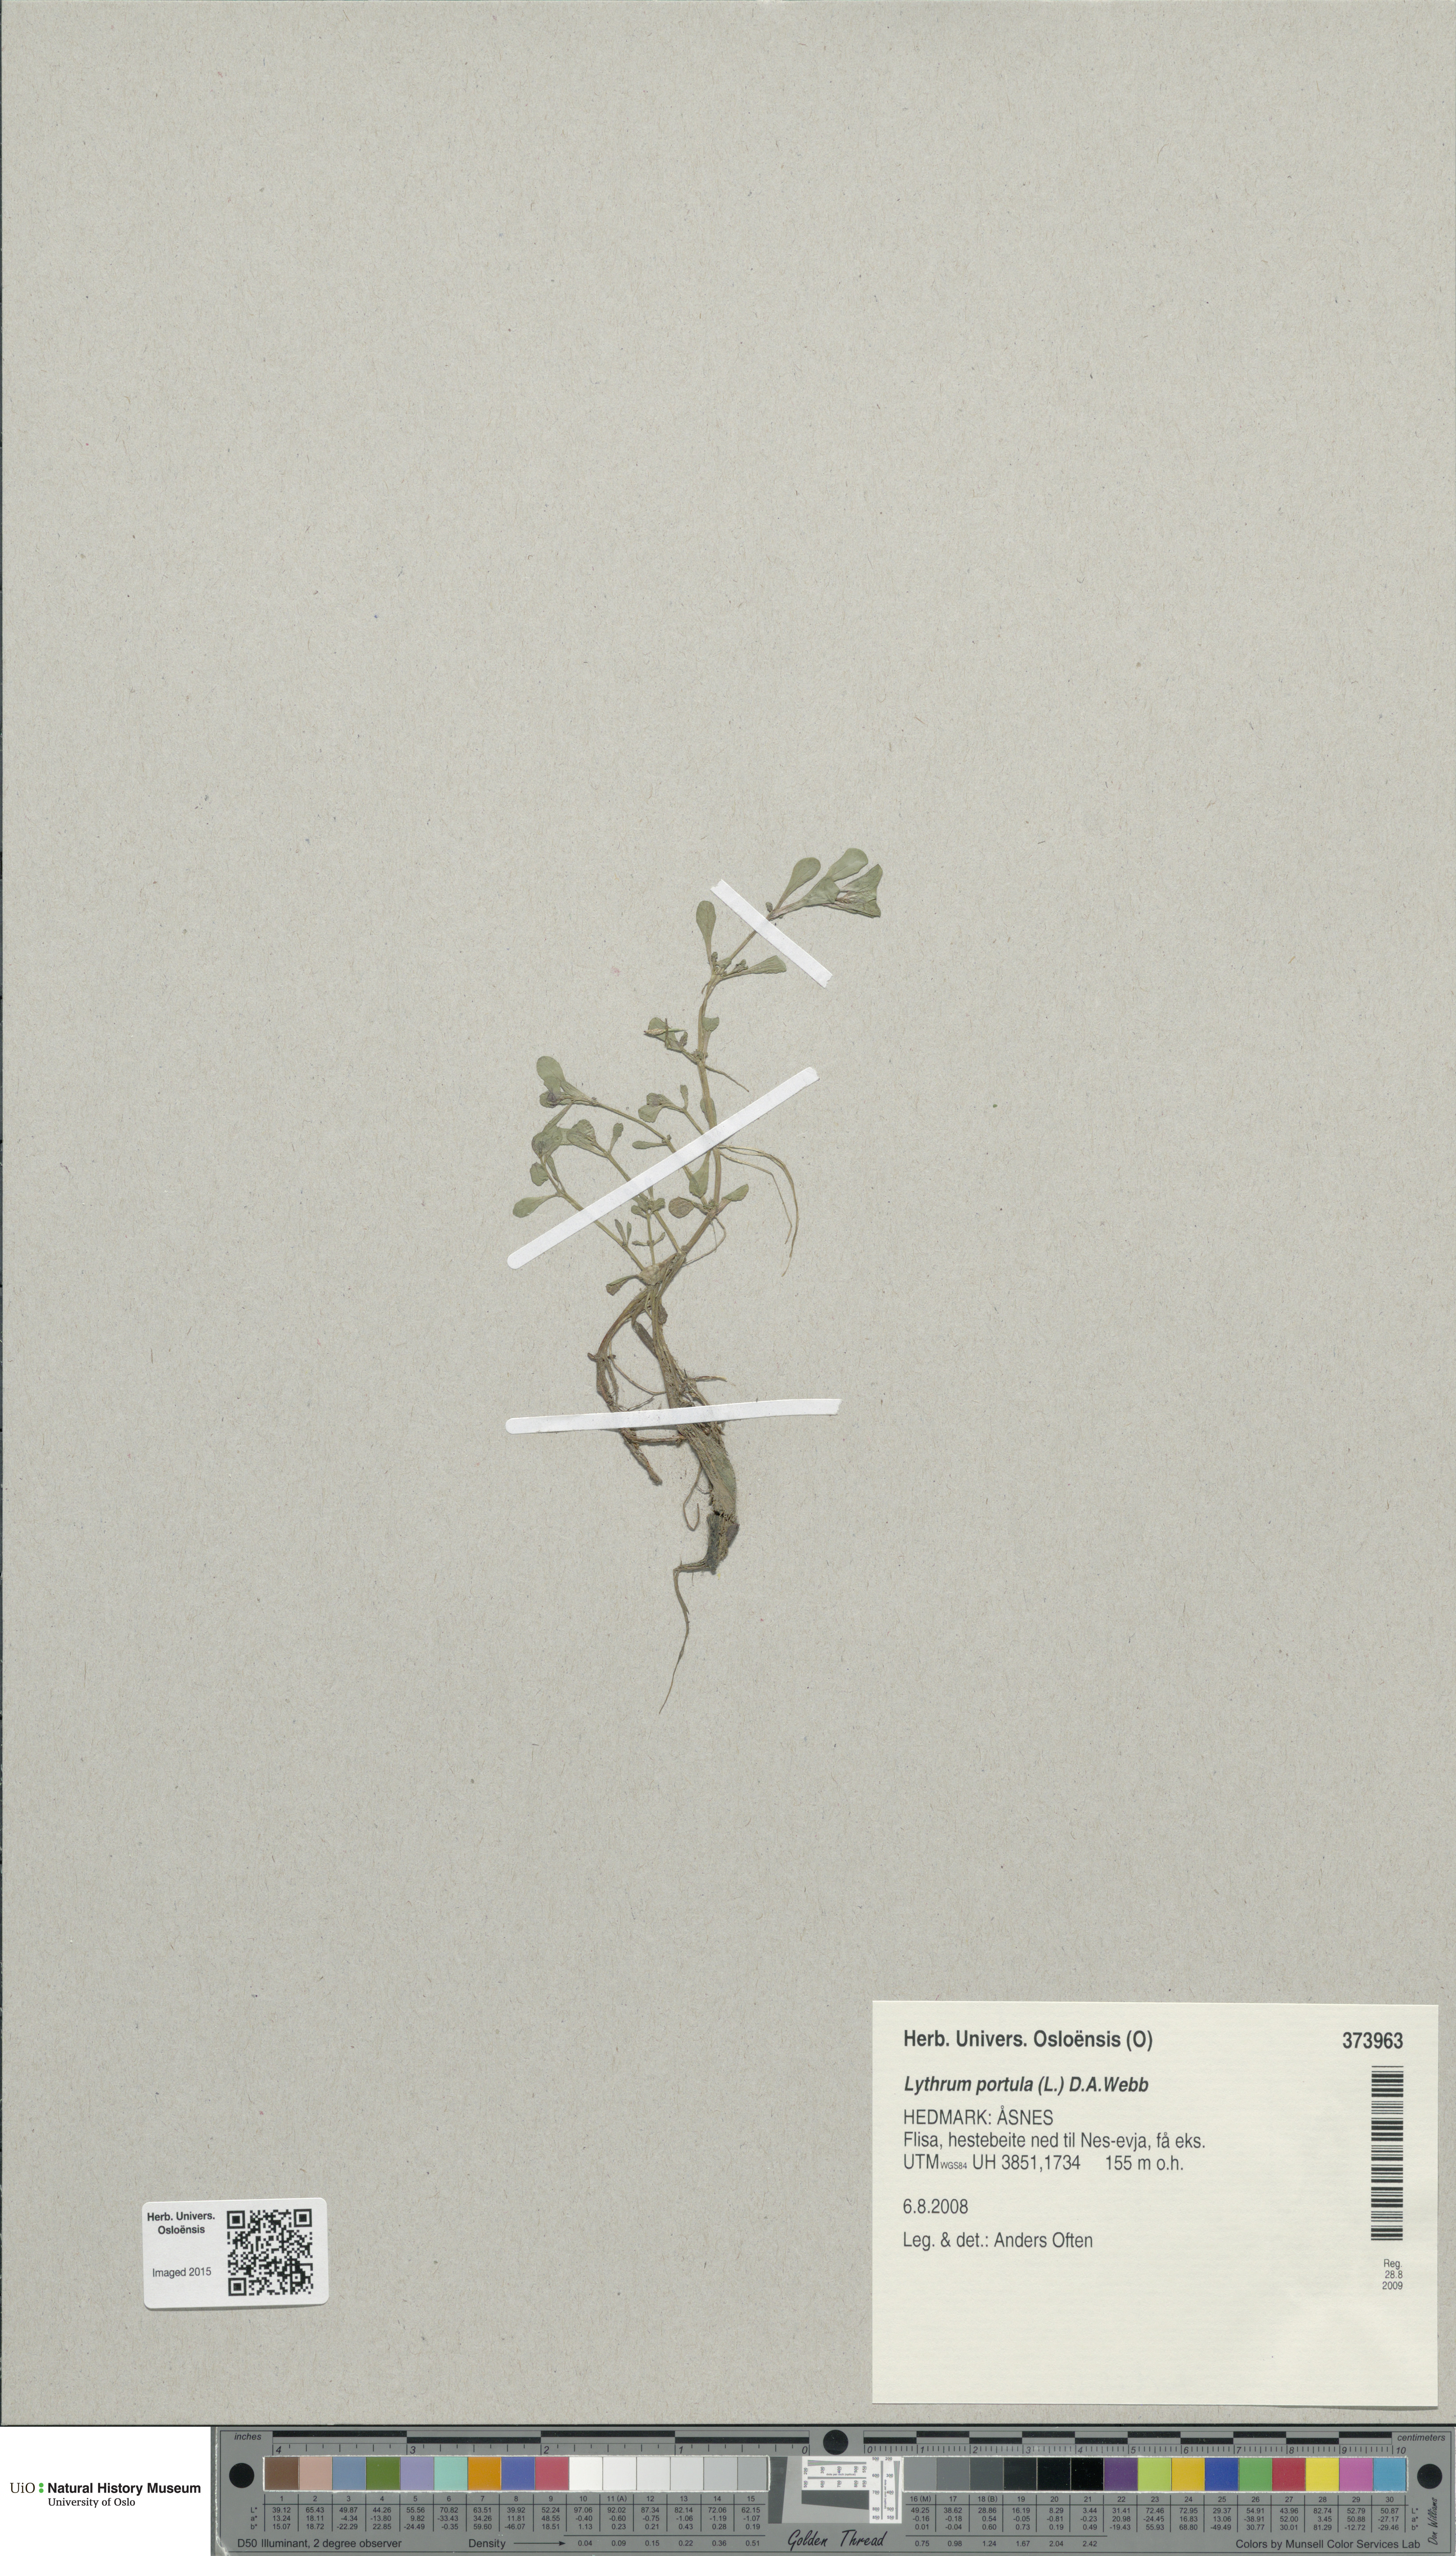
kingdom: Plantae
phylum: Tracheophyta
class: Magnoliopsida
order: Myrtales
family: Lythraceae
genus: Lythrum
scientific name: Lythrum portula
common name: Water purslane
